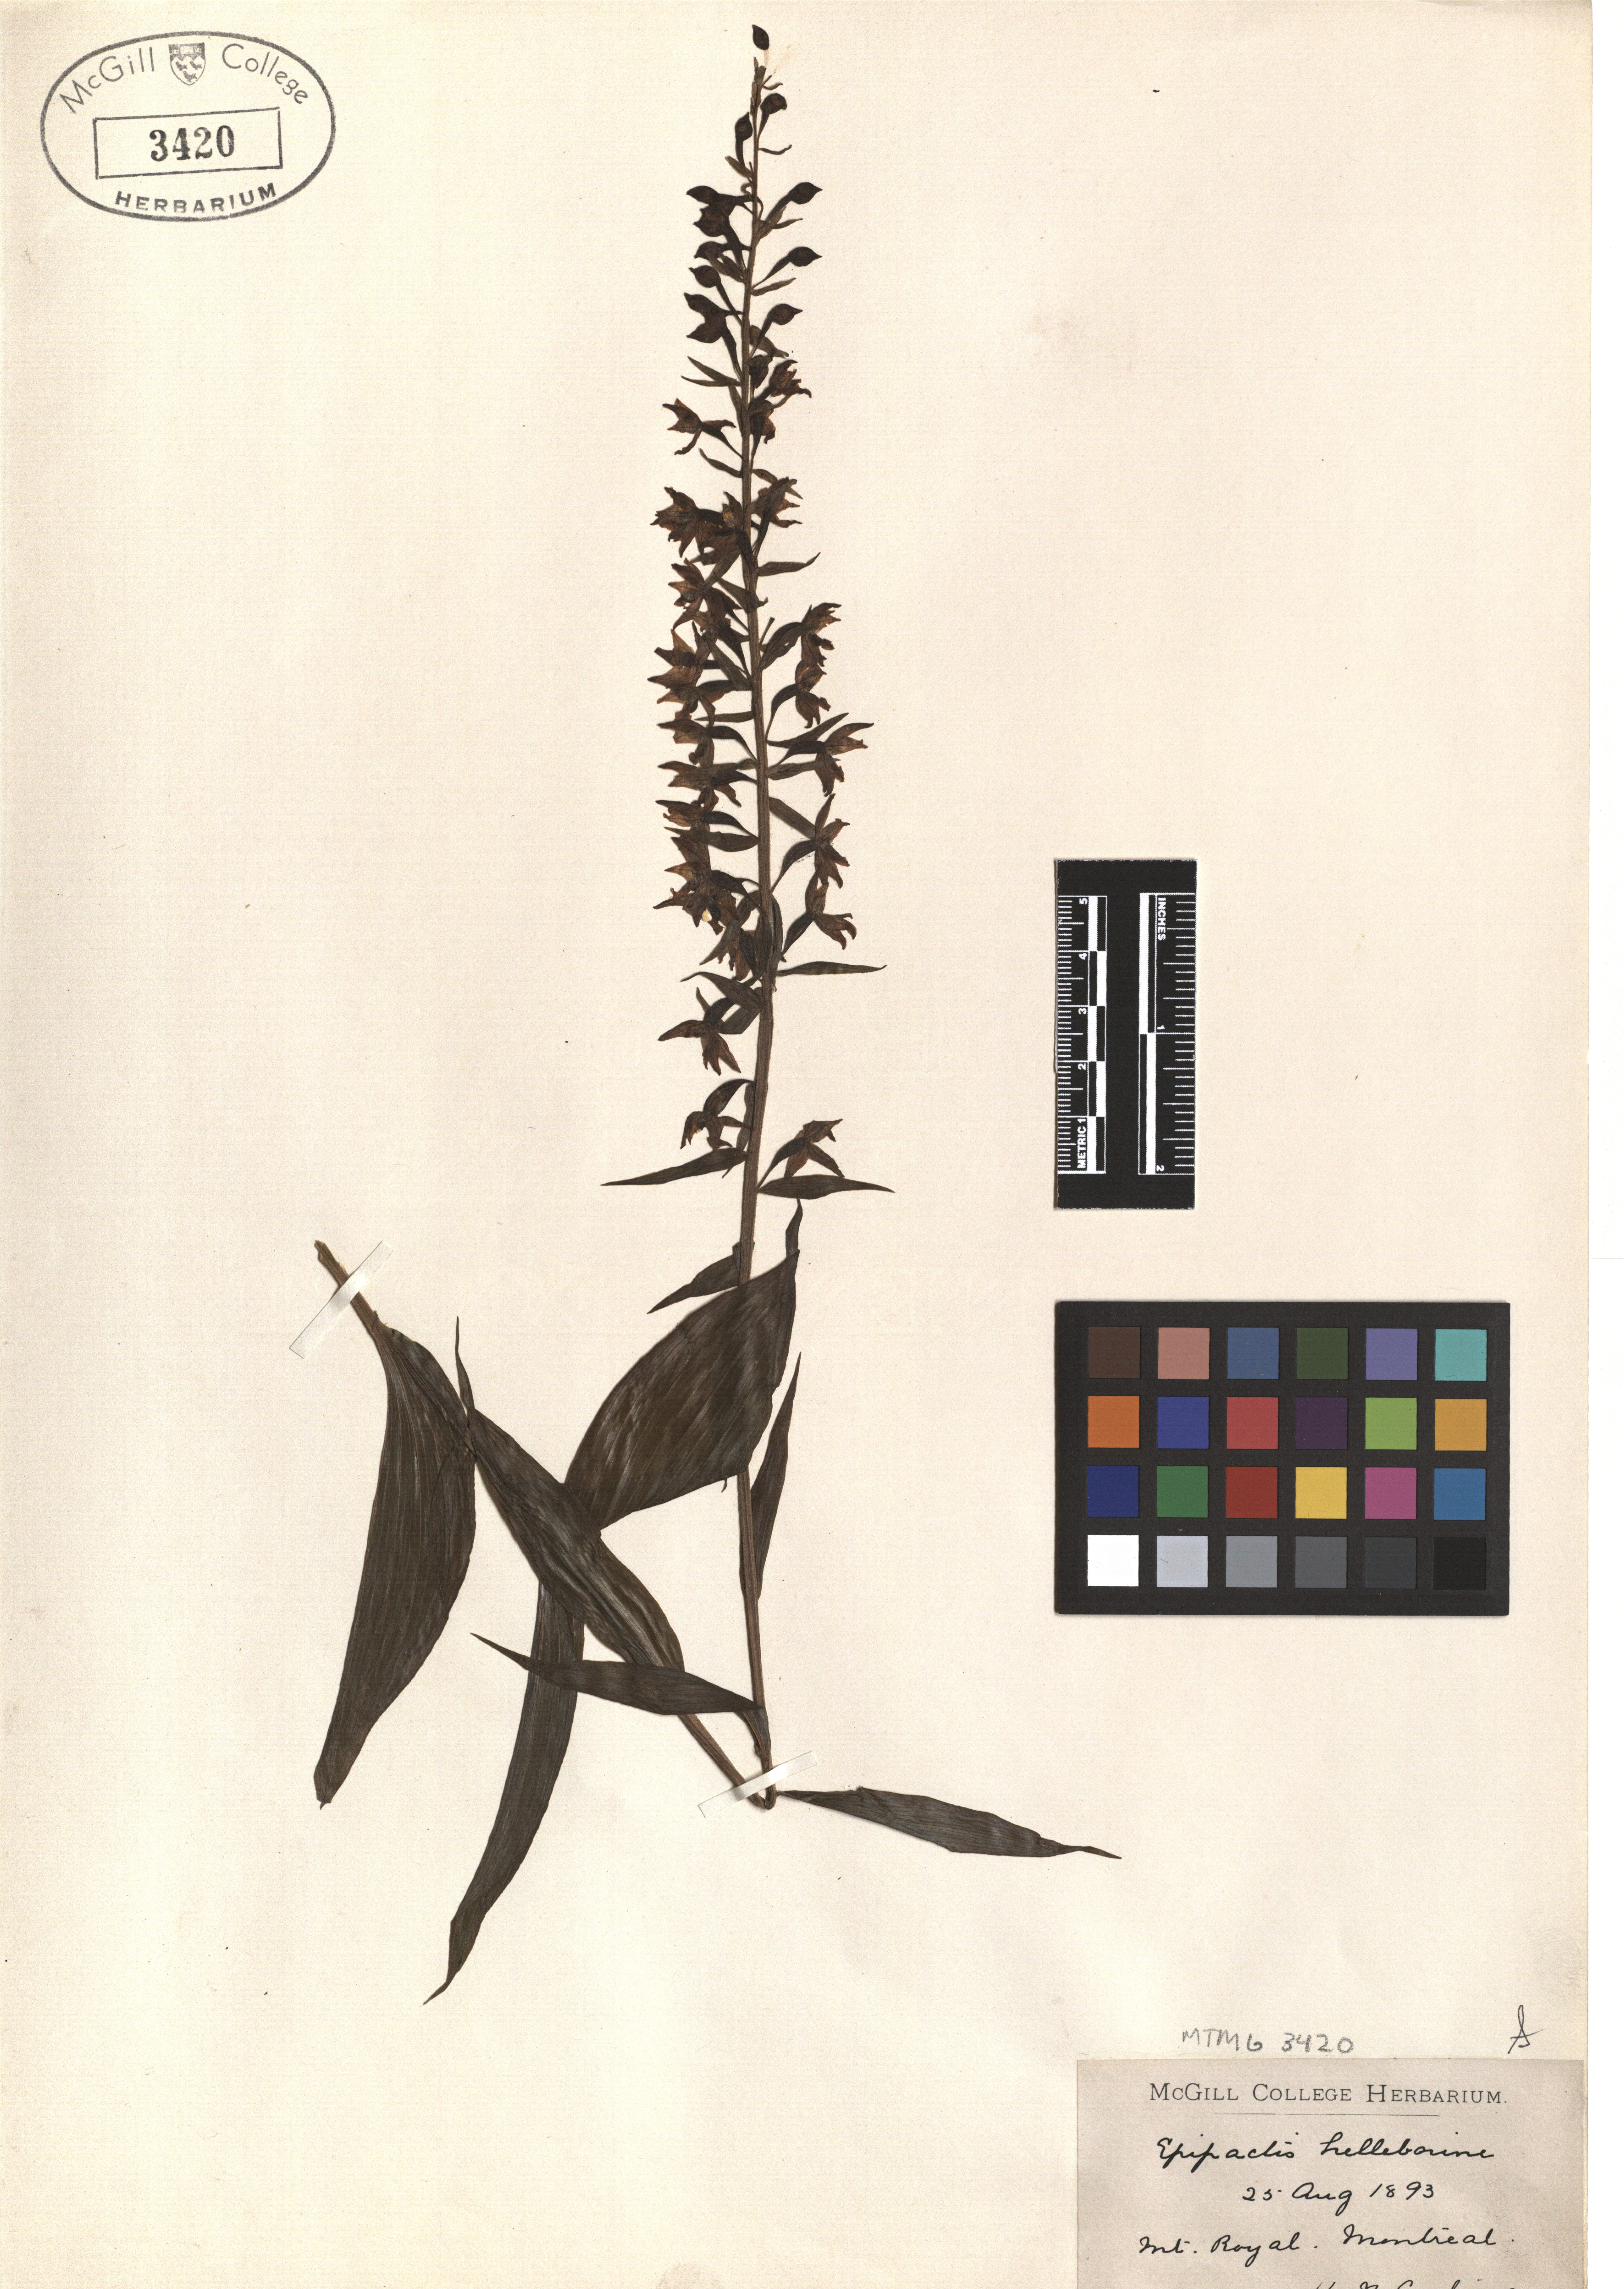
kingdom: Plantae
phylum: Tracheophyta
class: Liliopsida
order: Asparagales
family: Orchidaceae
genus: Epipactis
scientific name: Epipactis helleborine
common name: Broad-leaved helleborine
